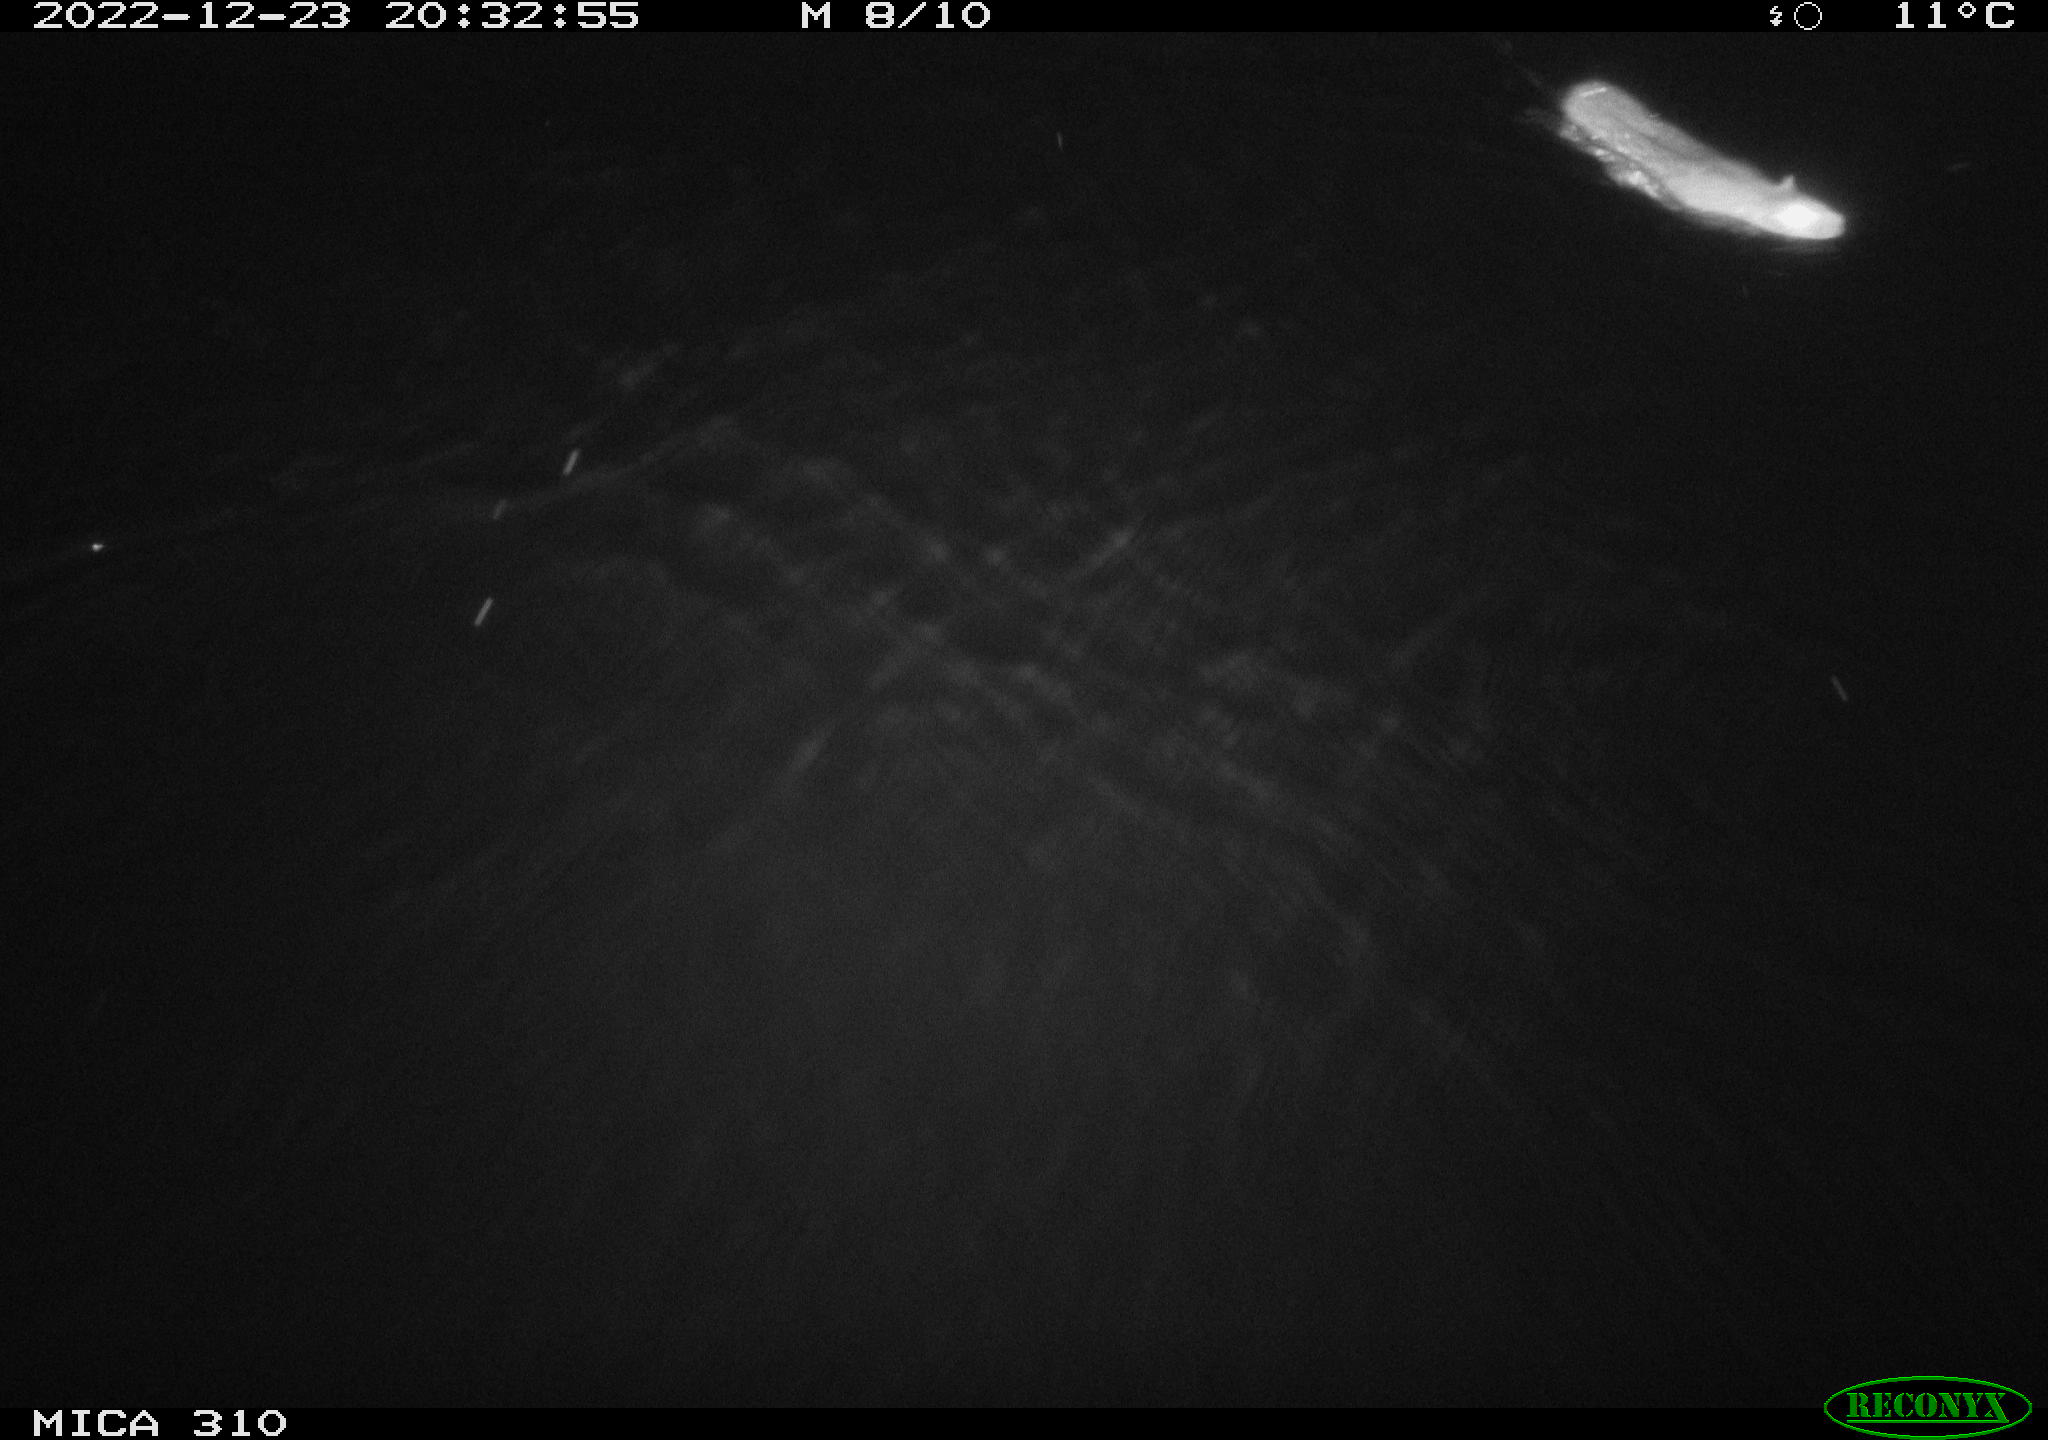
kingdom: Animalia
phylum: Chordata
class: Mammalia
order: Rodentia
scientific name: Rodentia
